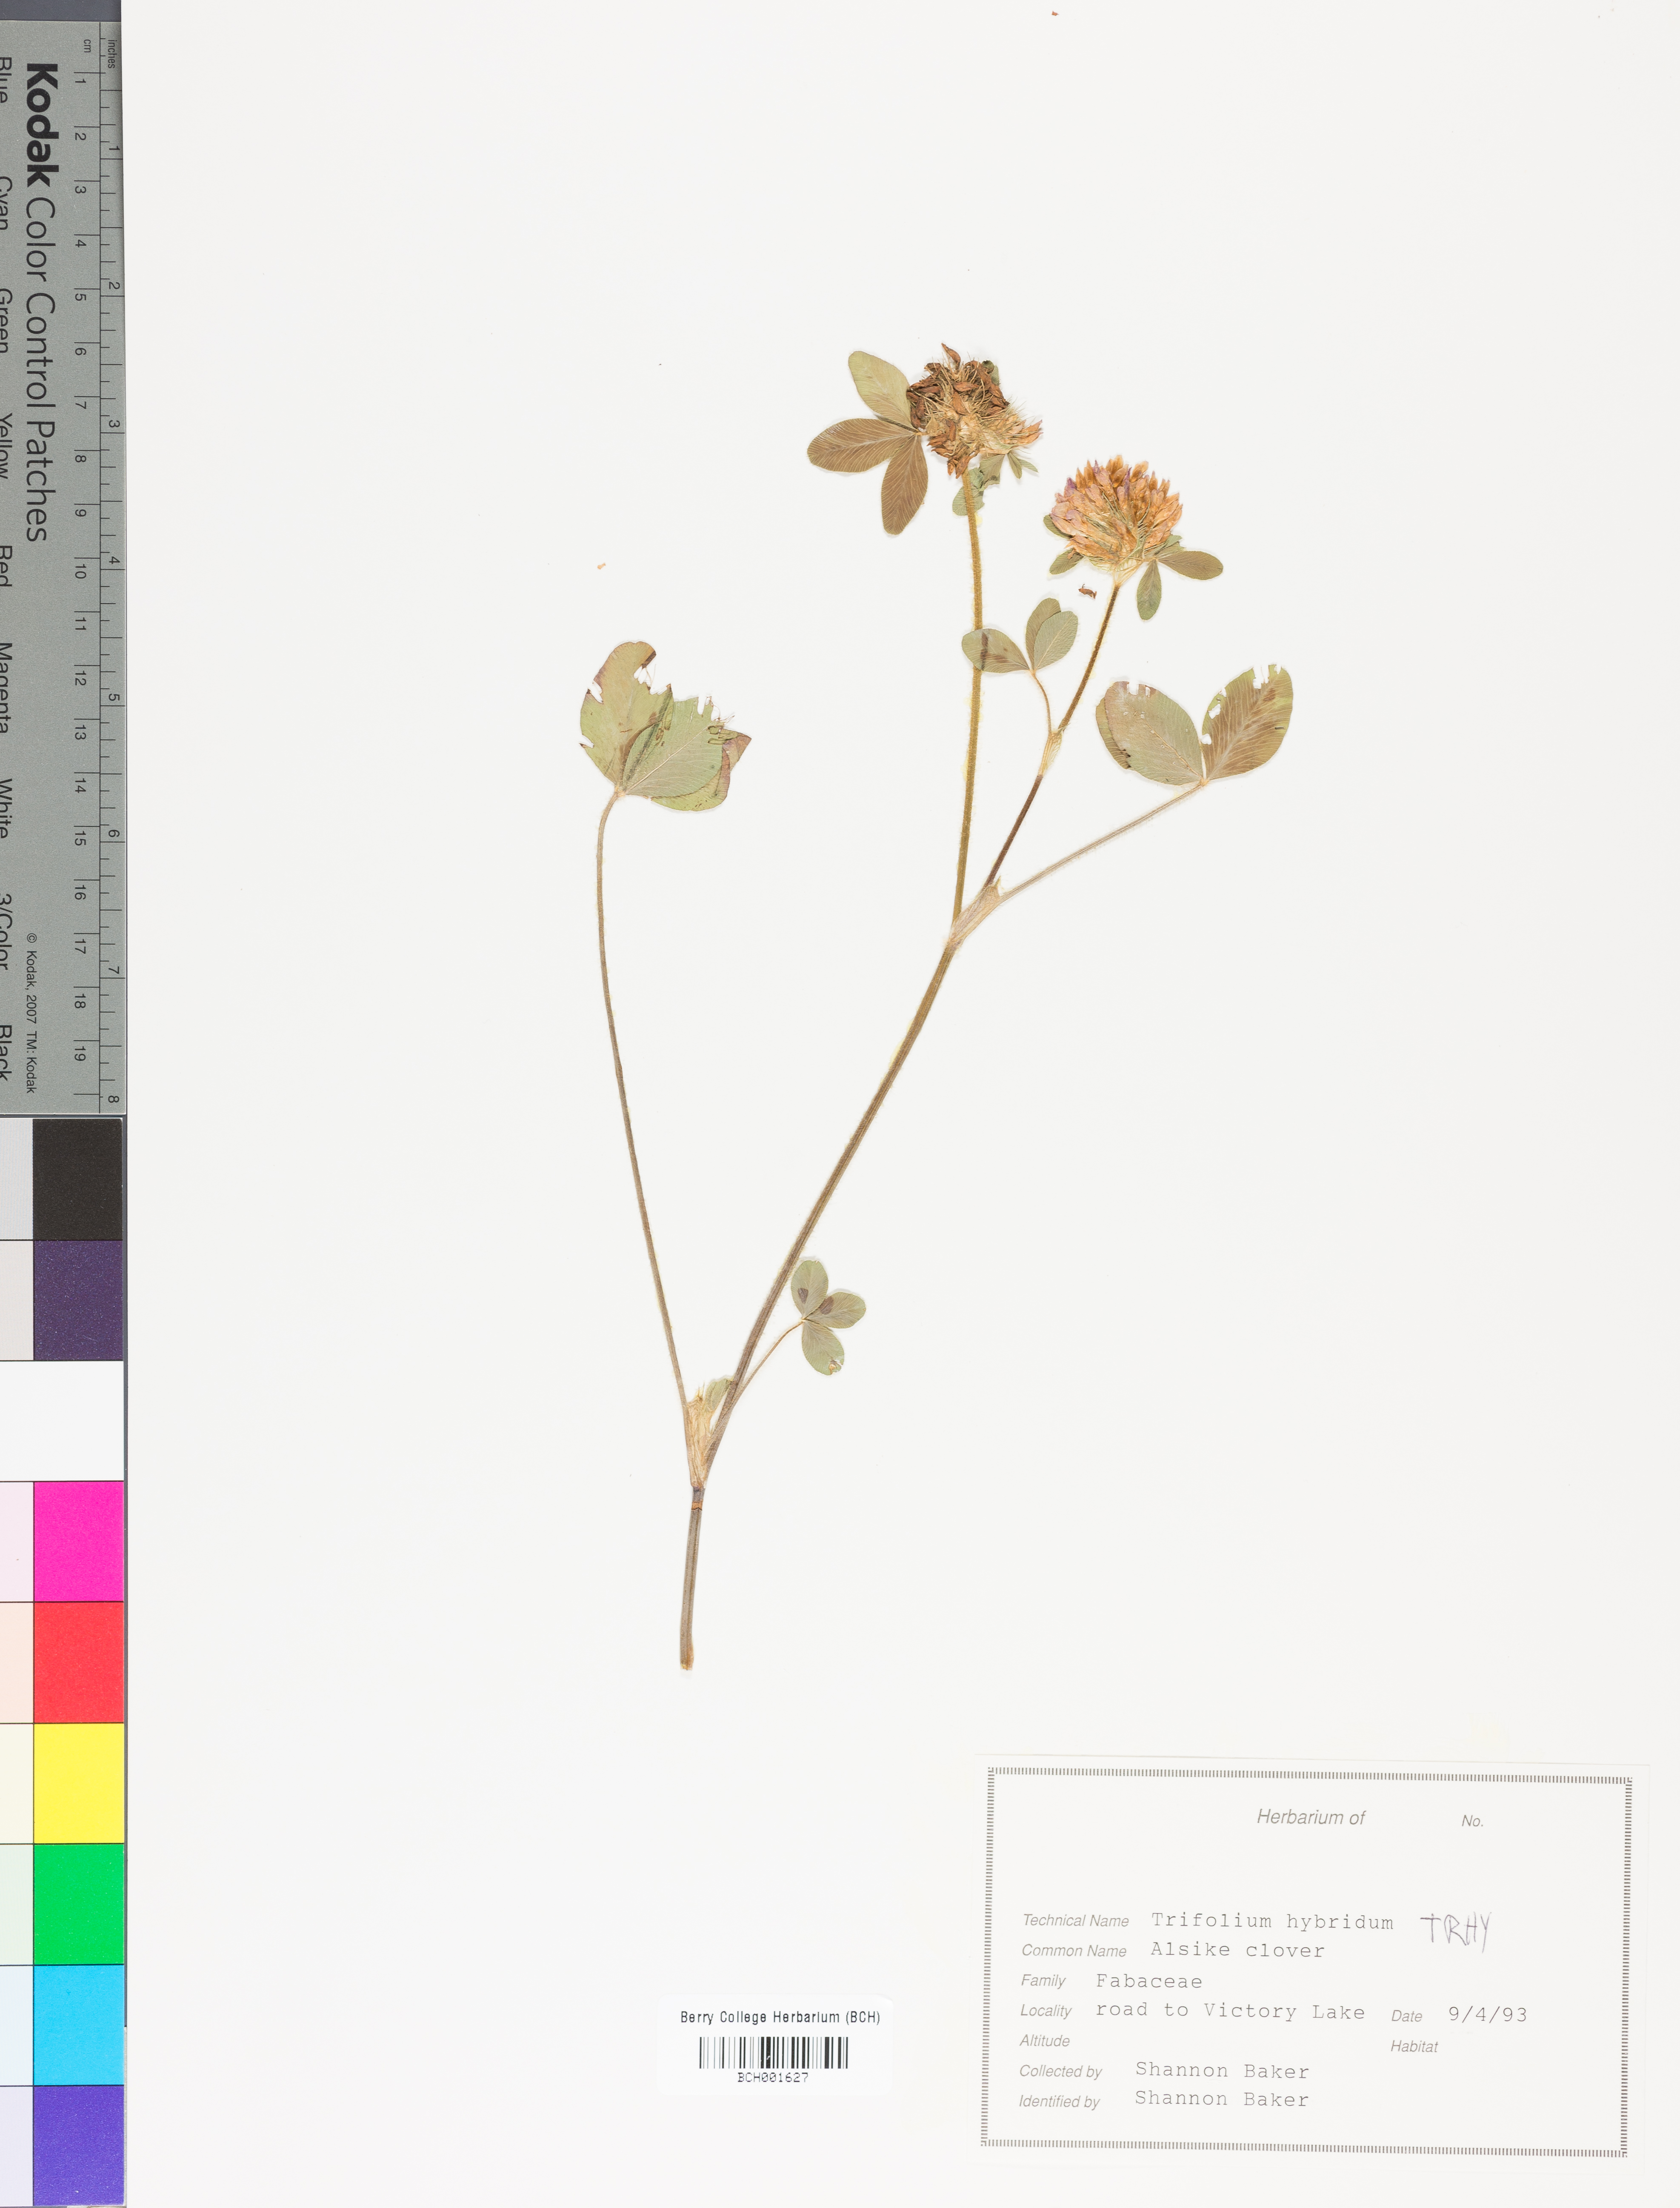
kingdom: Plantae
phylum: Tracheophyta
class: Magnoliopsida
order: Fabales
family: Fabaceae
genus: Trifolium
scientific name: Trifolium hybridum
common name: Alsike clover
